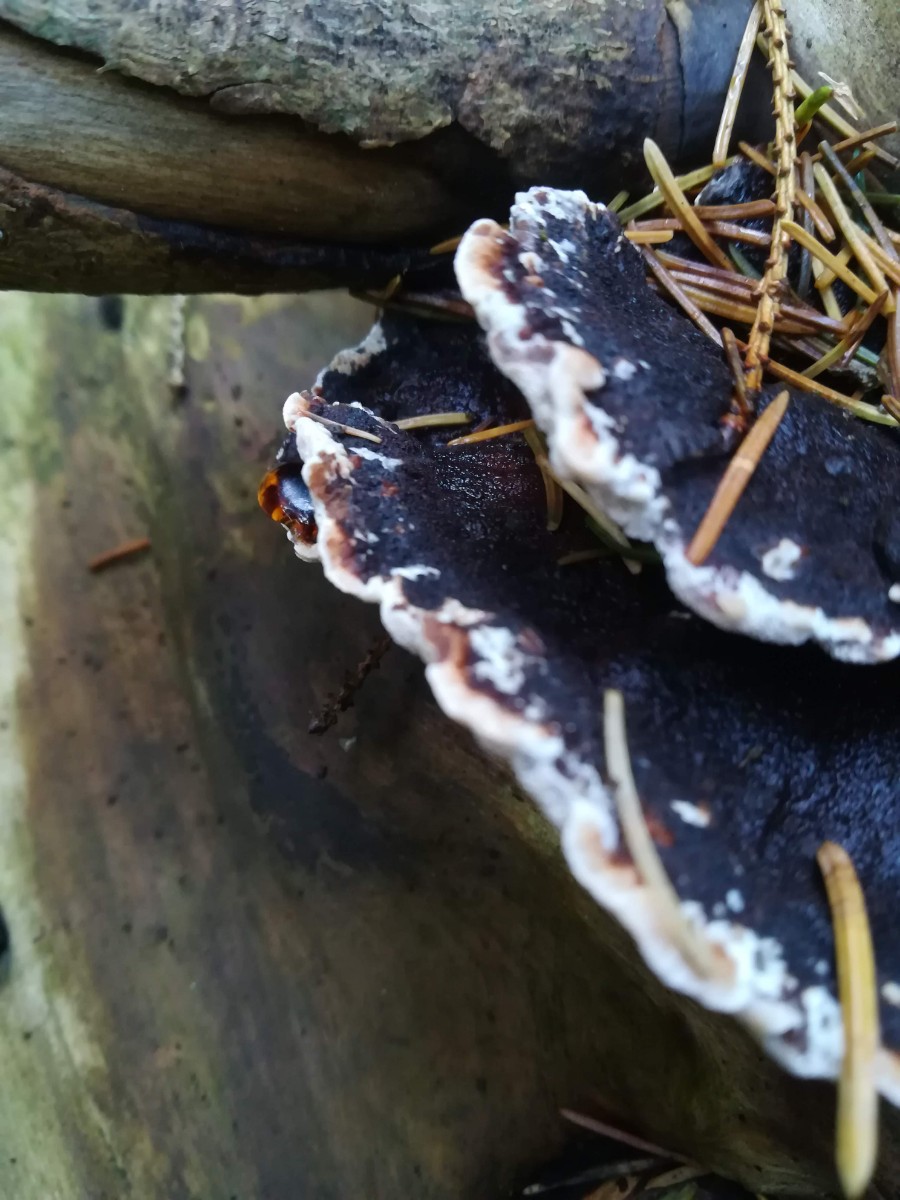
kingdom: Fungi
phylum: Basidiomycota
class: Agaricomycetes
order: Polyporales
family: Ischnodermataceae
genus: Ischnoderma
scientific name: Ischnoderma benzoinum
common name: gran-tjæreporesvamp
